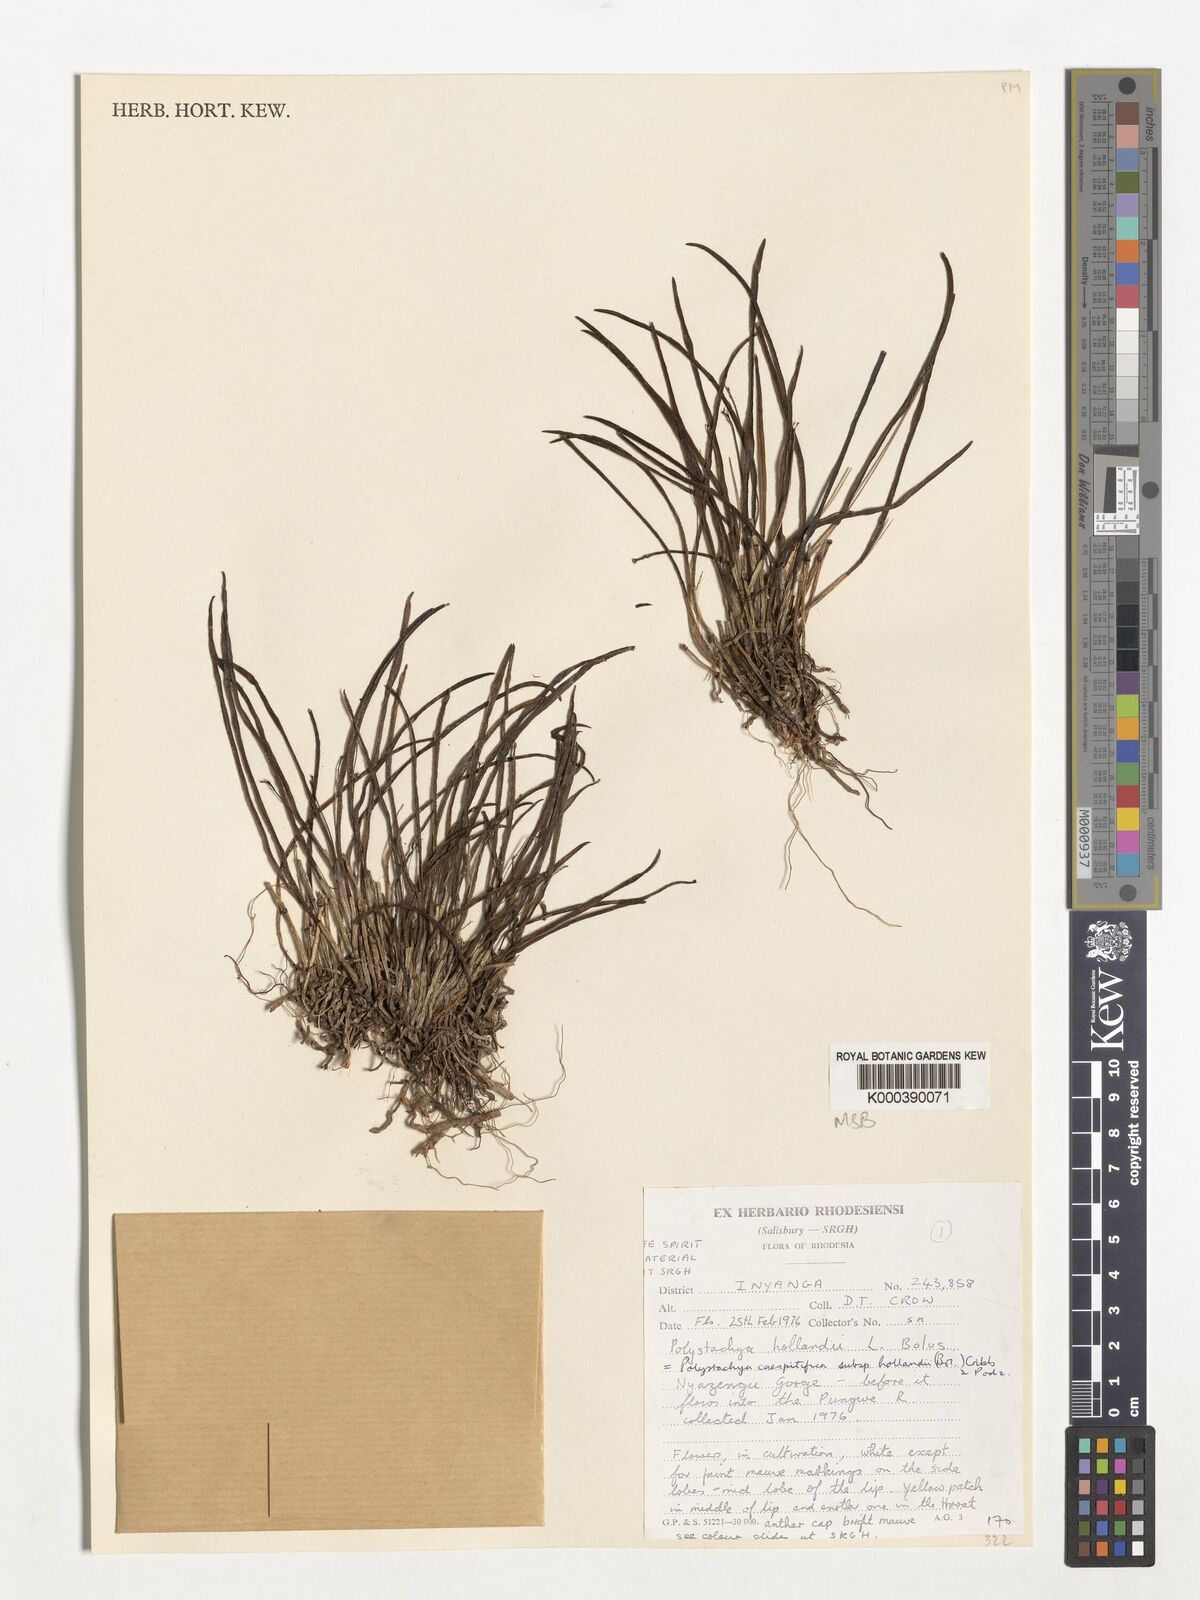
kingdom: Plantae
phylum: Tracheophyta
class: Liliopsida
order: Asparagales
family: Orchidaceae
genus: Polystachya
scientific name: Polystachya caespitifica
